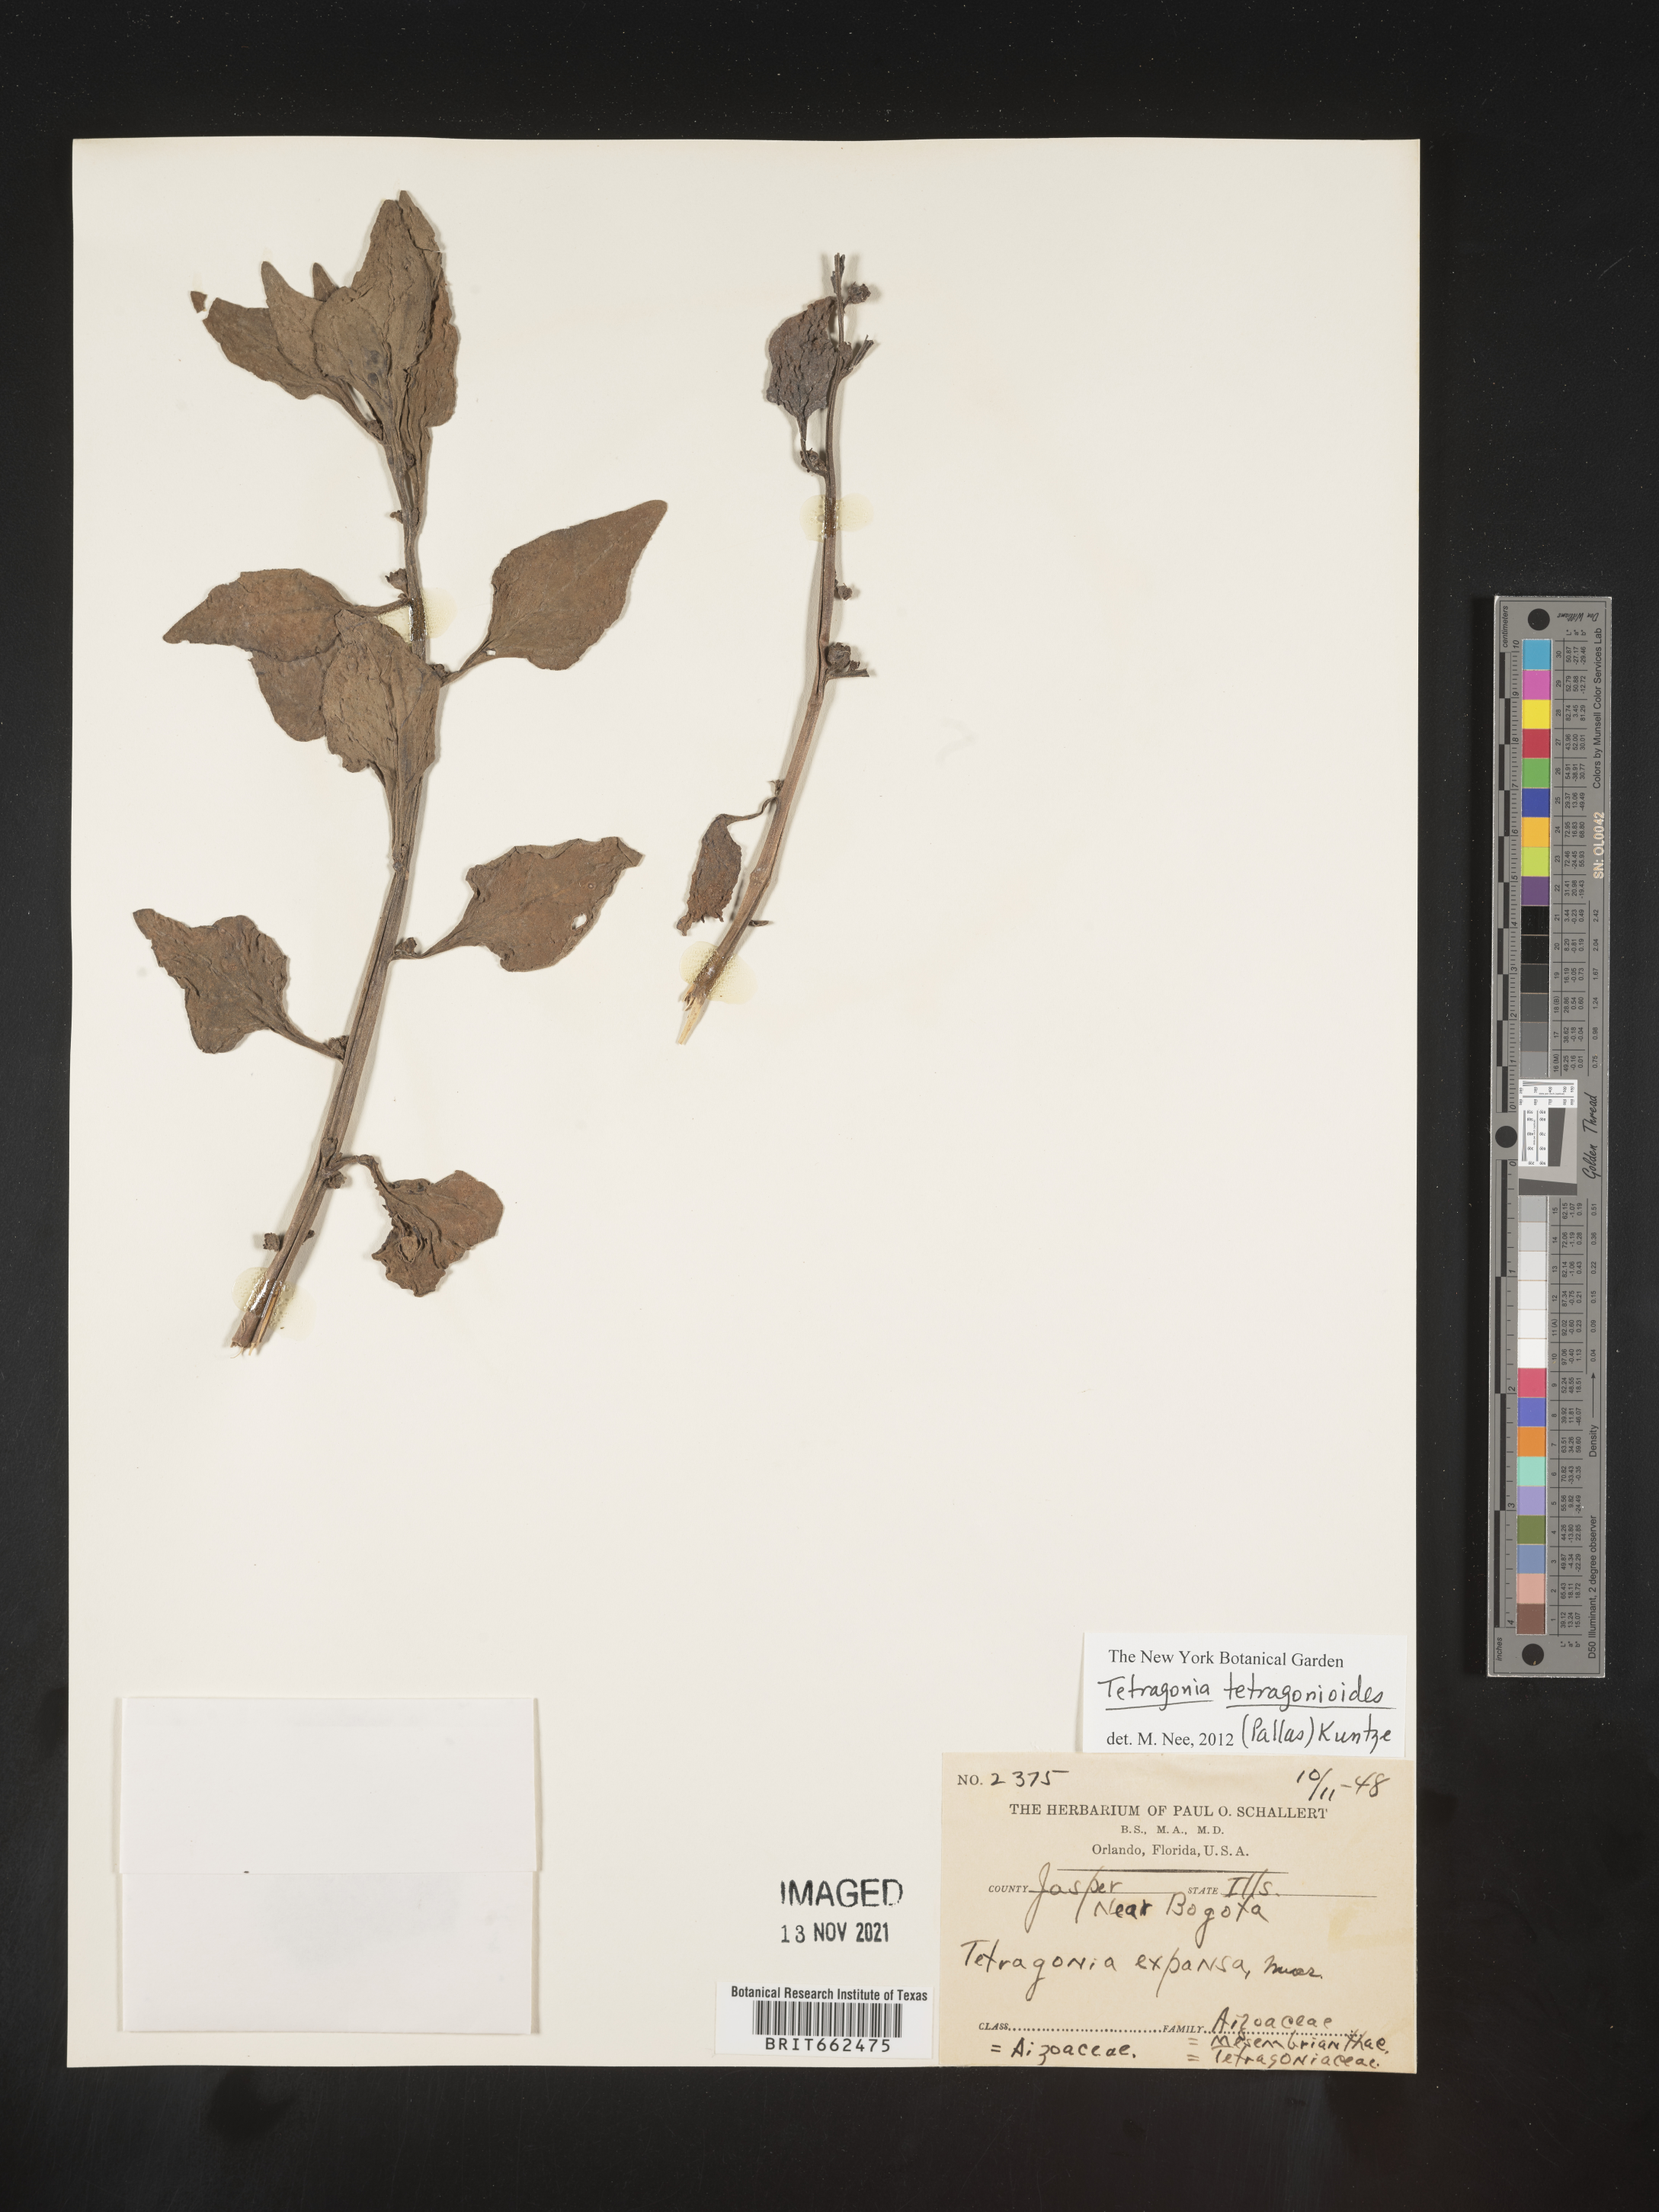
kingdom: Plantae
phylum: Tracheophyta
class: Magnoliopsida
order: Caryophyllales
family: Aizoaceae
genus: Tetragonia
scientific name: Tetragonia
